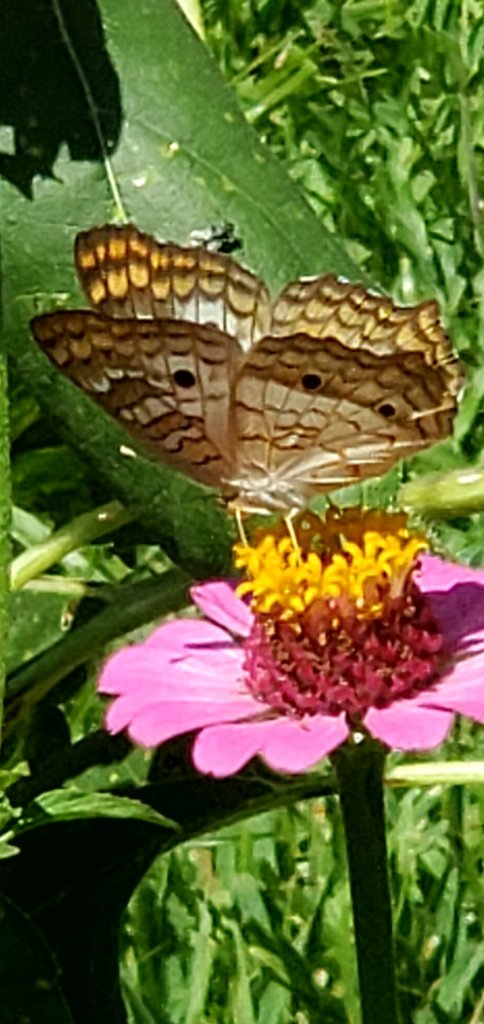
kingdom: Animalia
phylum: Arthropoda
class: Insecta
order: Lepidoptera
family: Nymphalidae
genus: Anartia
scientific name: Anartia jatrophae
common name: White Peacock
